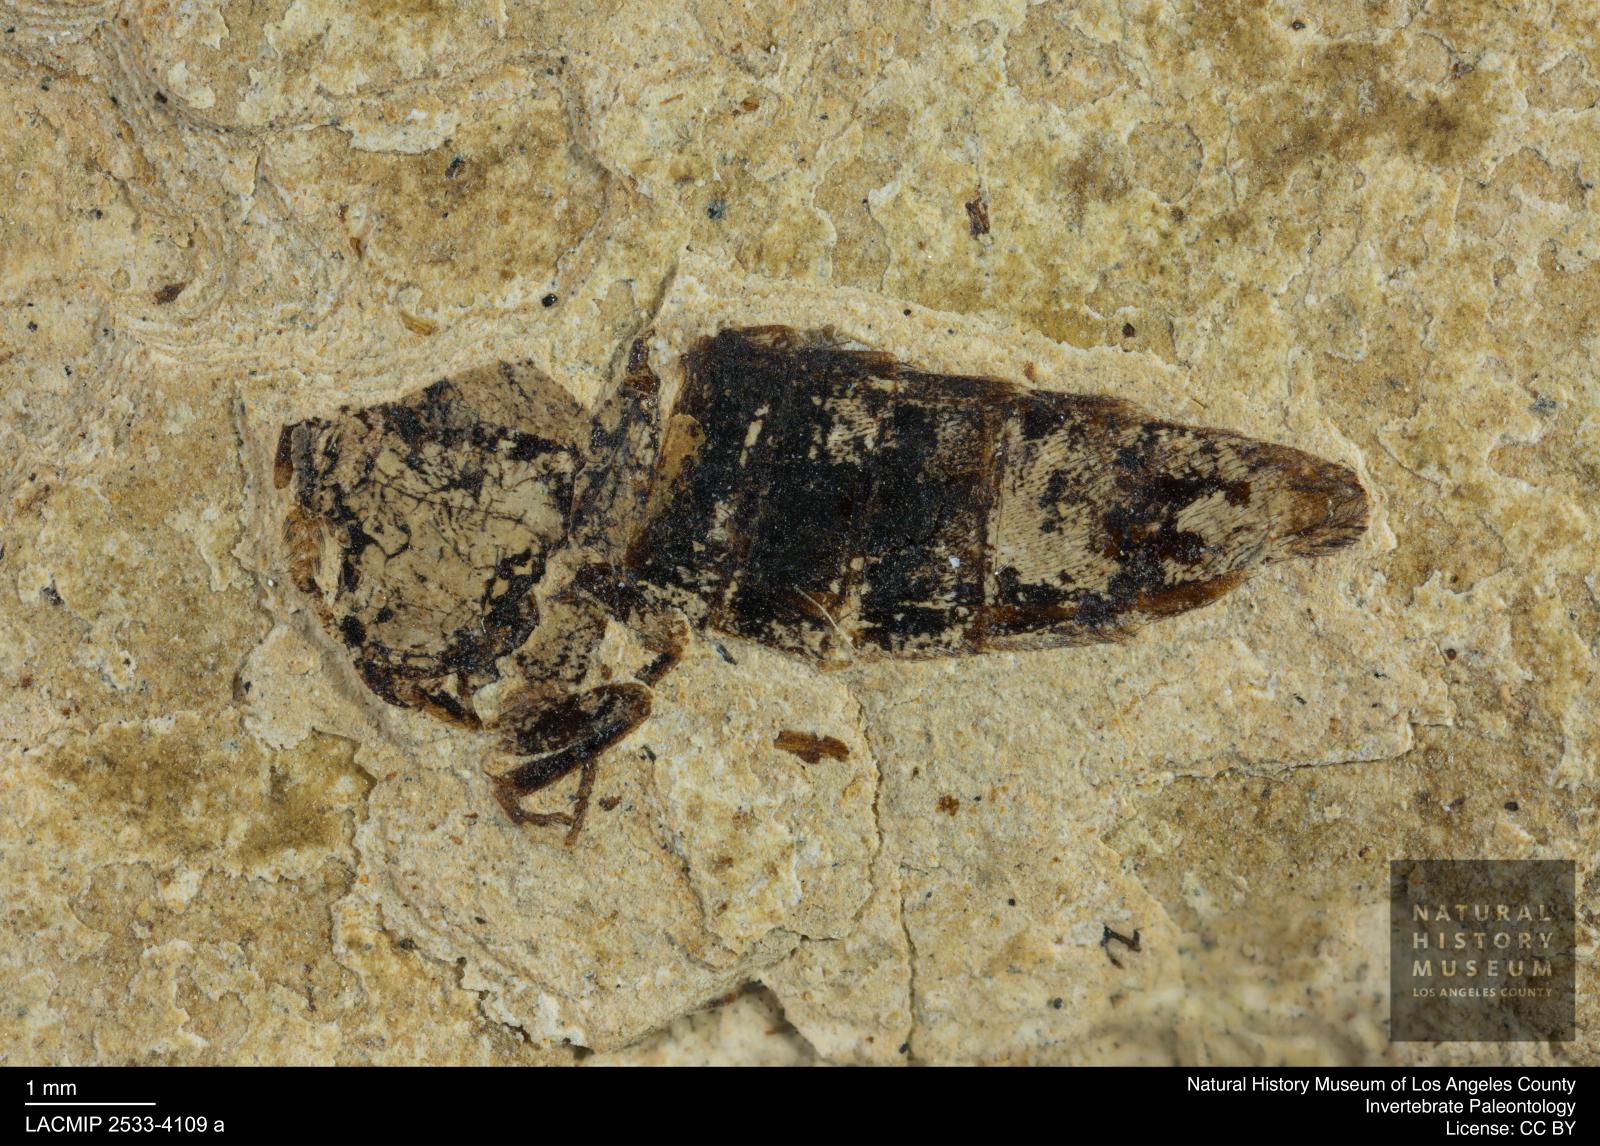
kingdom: Animalia
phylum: Arthropoda
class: Insecta
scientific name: Insecta
